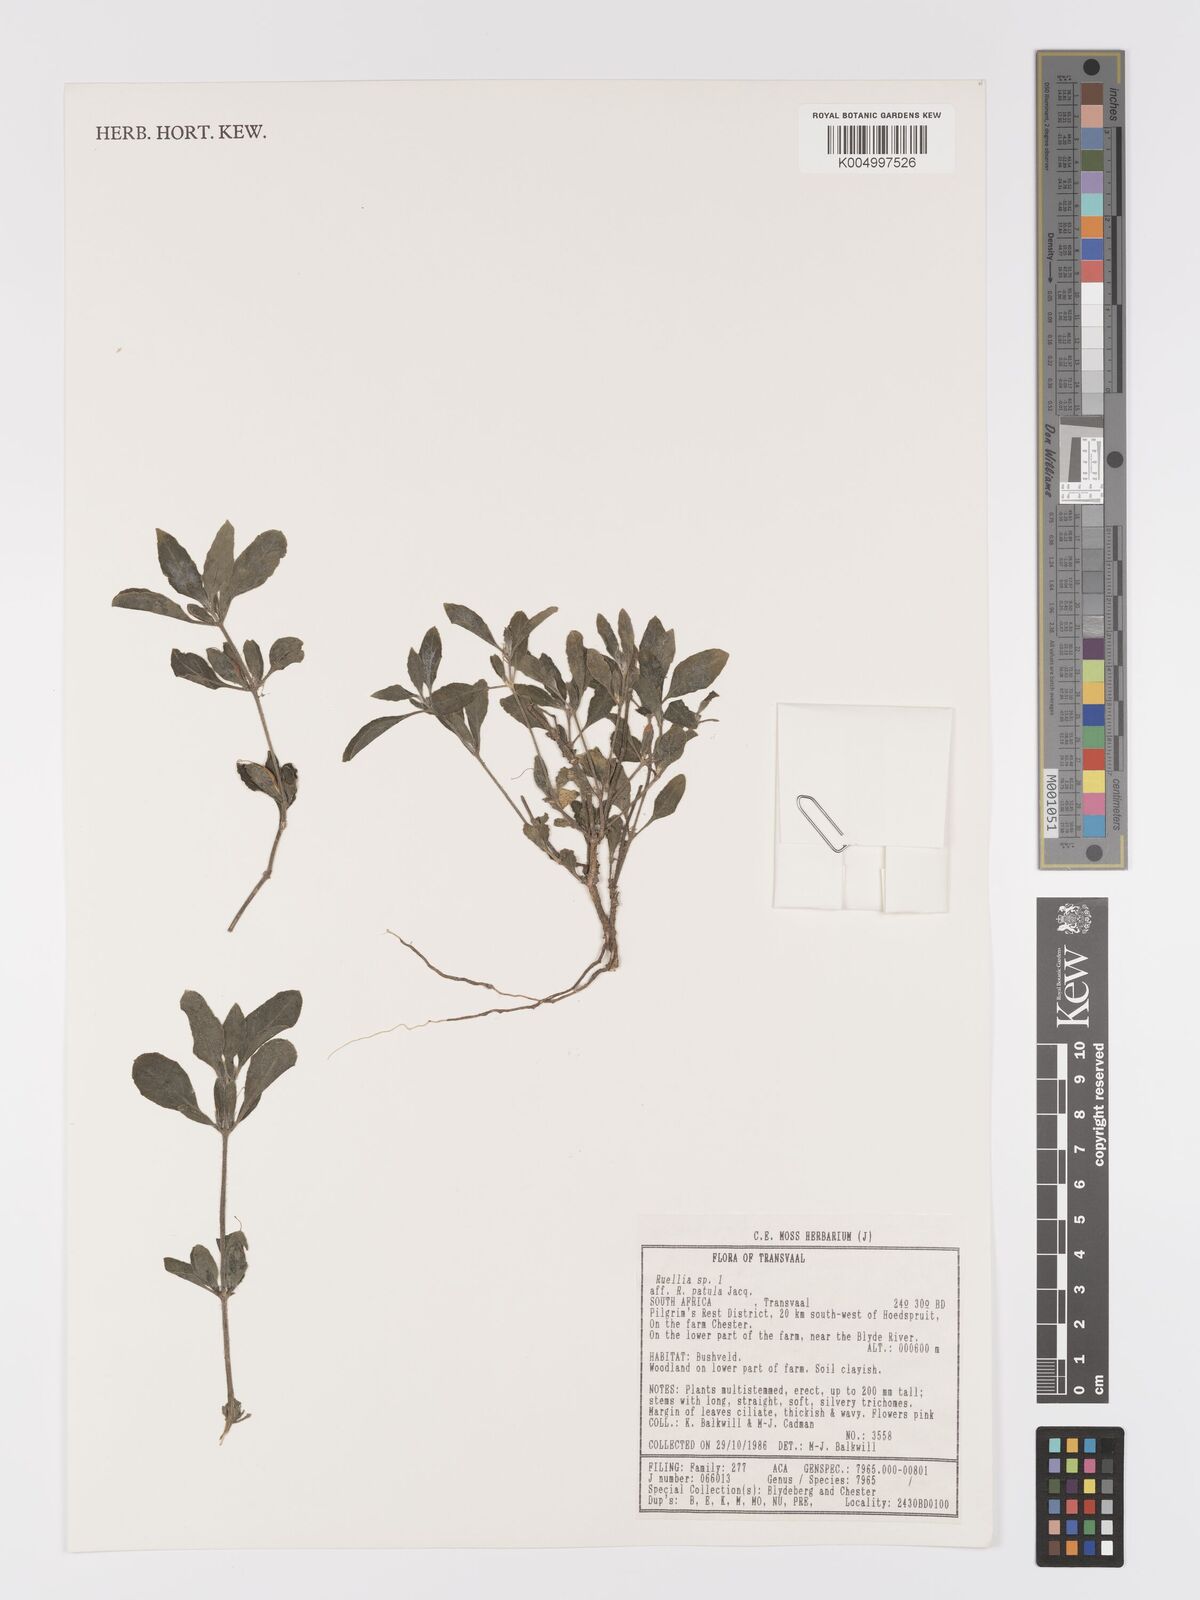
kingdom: Plantae
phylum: Tracheophyta
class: Magnoliopsida
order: Lamiales
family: Acanthaceae
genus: Ruellia
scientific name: Ruellia
